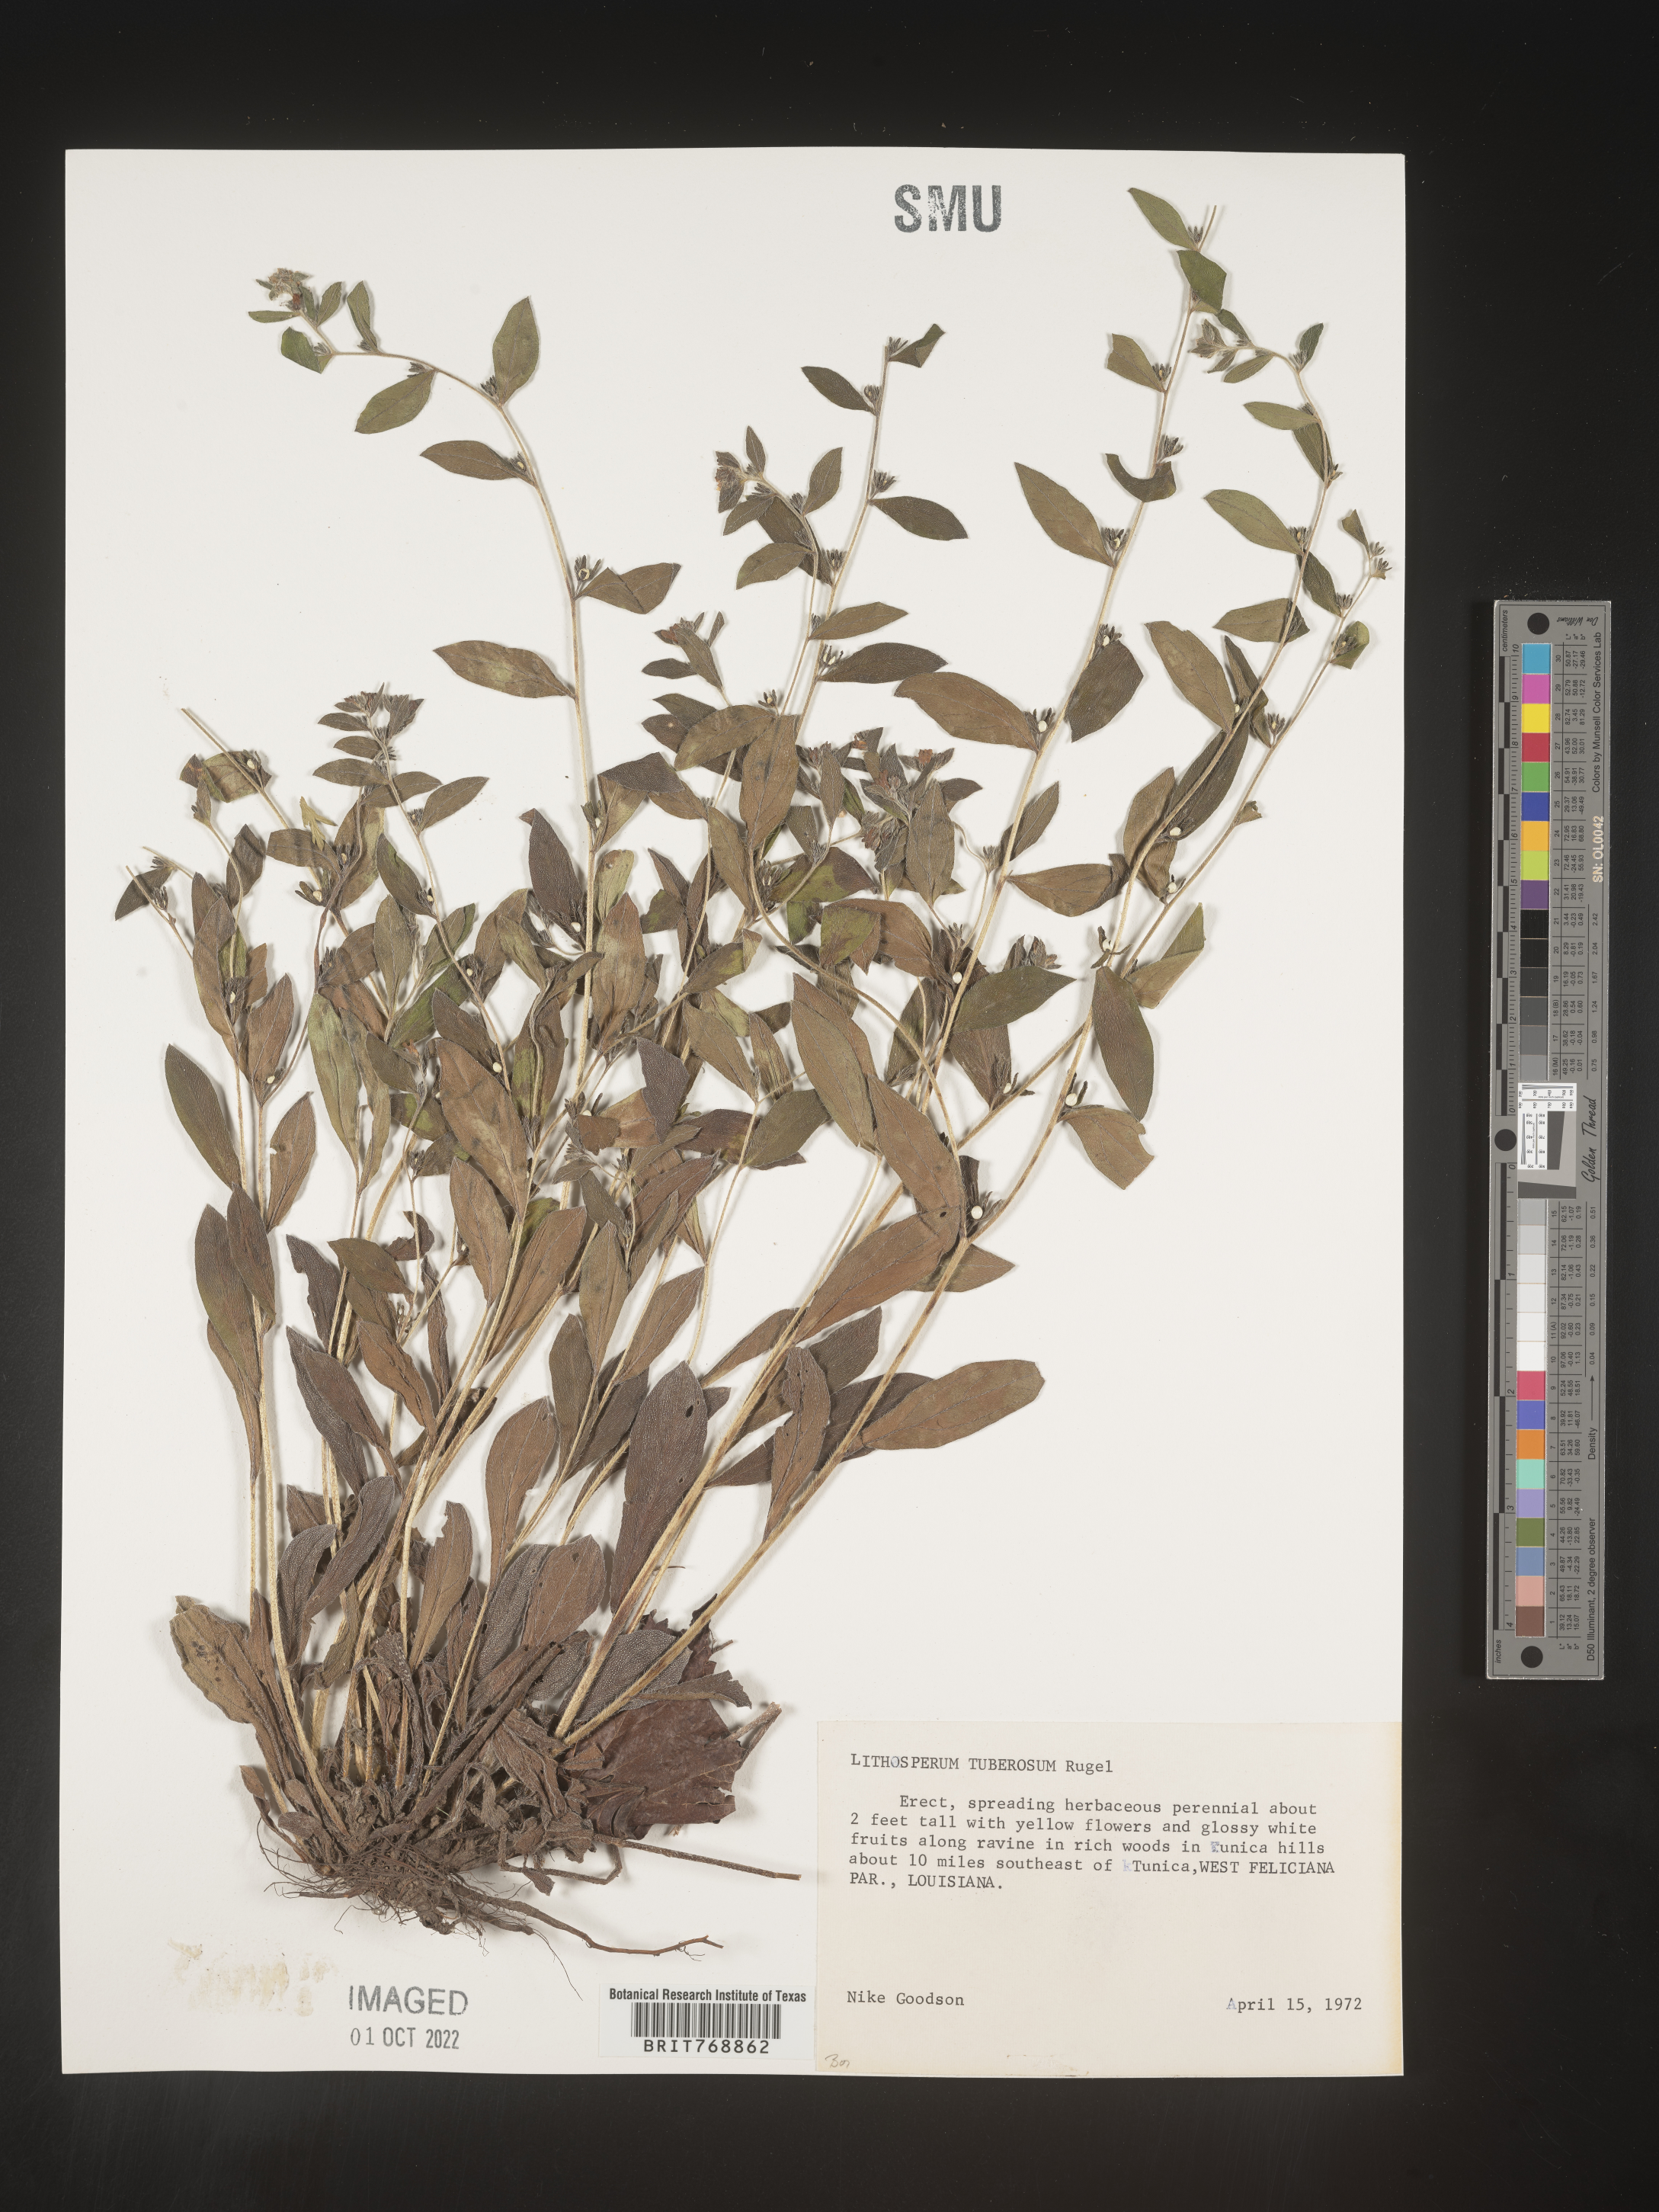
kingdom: Plantae
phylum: Tracheophyta
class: Magnoliopsida
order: Boraginales
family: Boraginaceae
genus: Lithospermum
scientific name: Lithospermum
